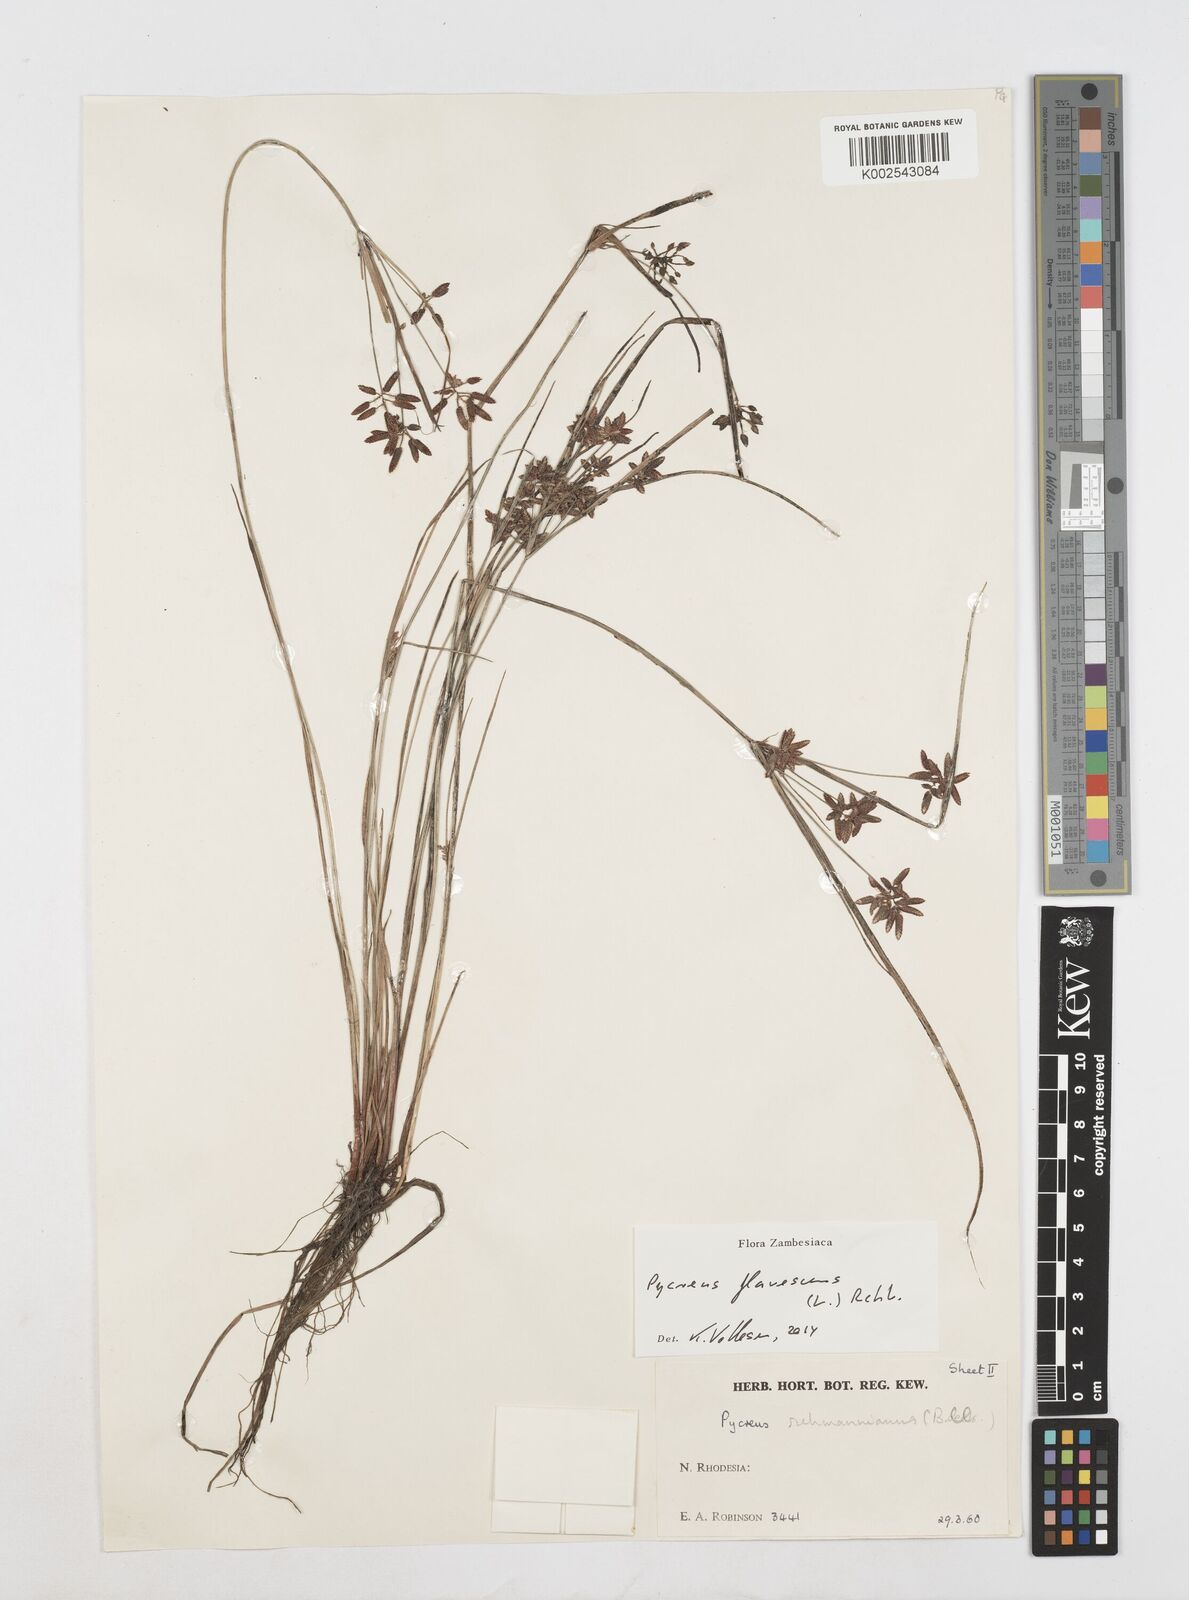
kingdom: Plantae
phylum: Tracheophyta
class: Liliopsida
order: Poales
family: Cyperaceae
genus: Cyperus
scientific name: Cyperus flavescens
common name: Yellow galingale
